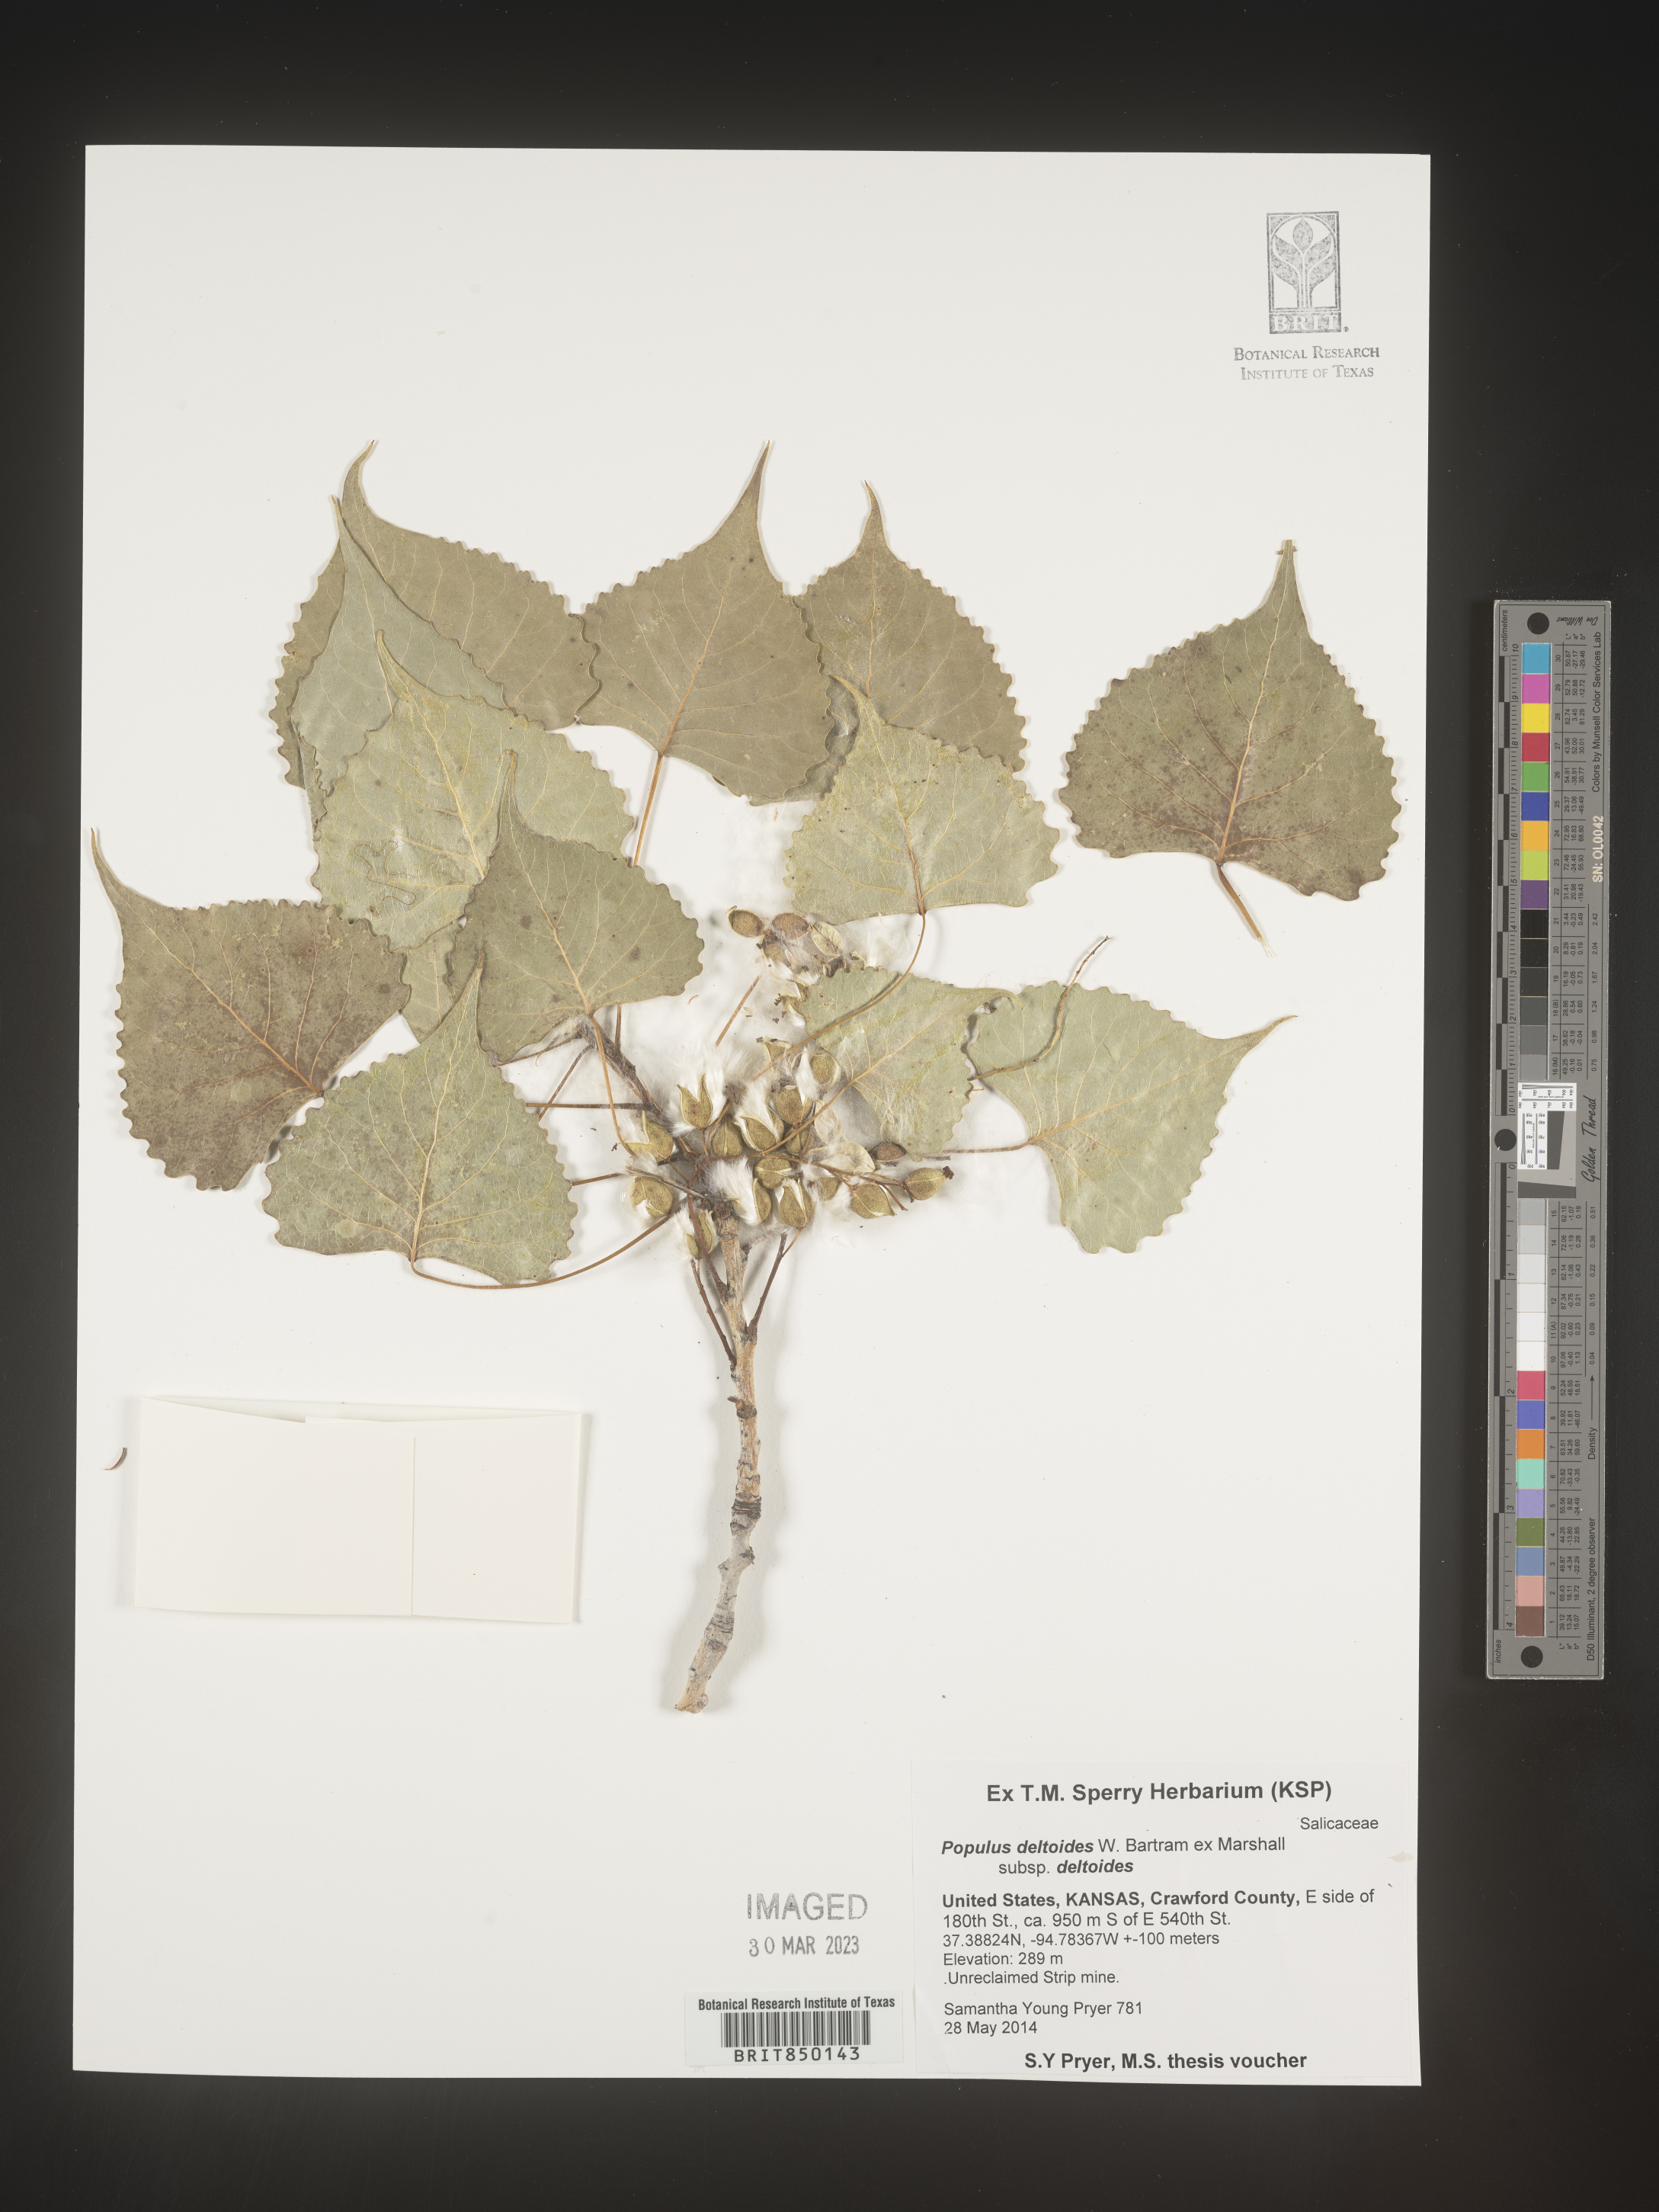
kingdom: Plantae
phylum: Tracheophyta
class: Magnoliopsida
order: Malpighiales
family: Salicaceae
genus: Populus
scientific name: Populus deltoides
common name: Eastern cottonwood
